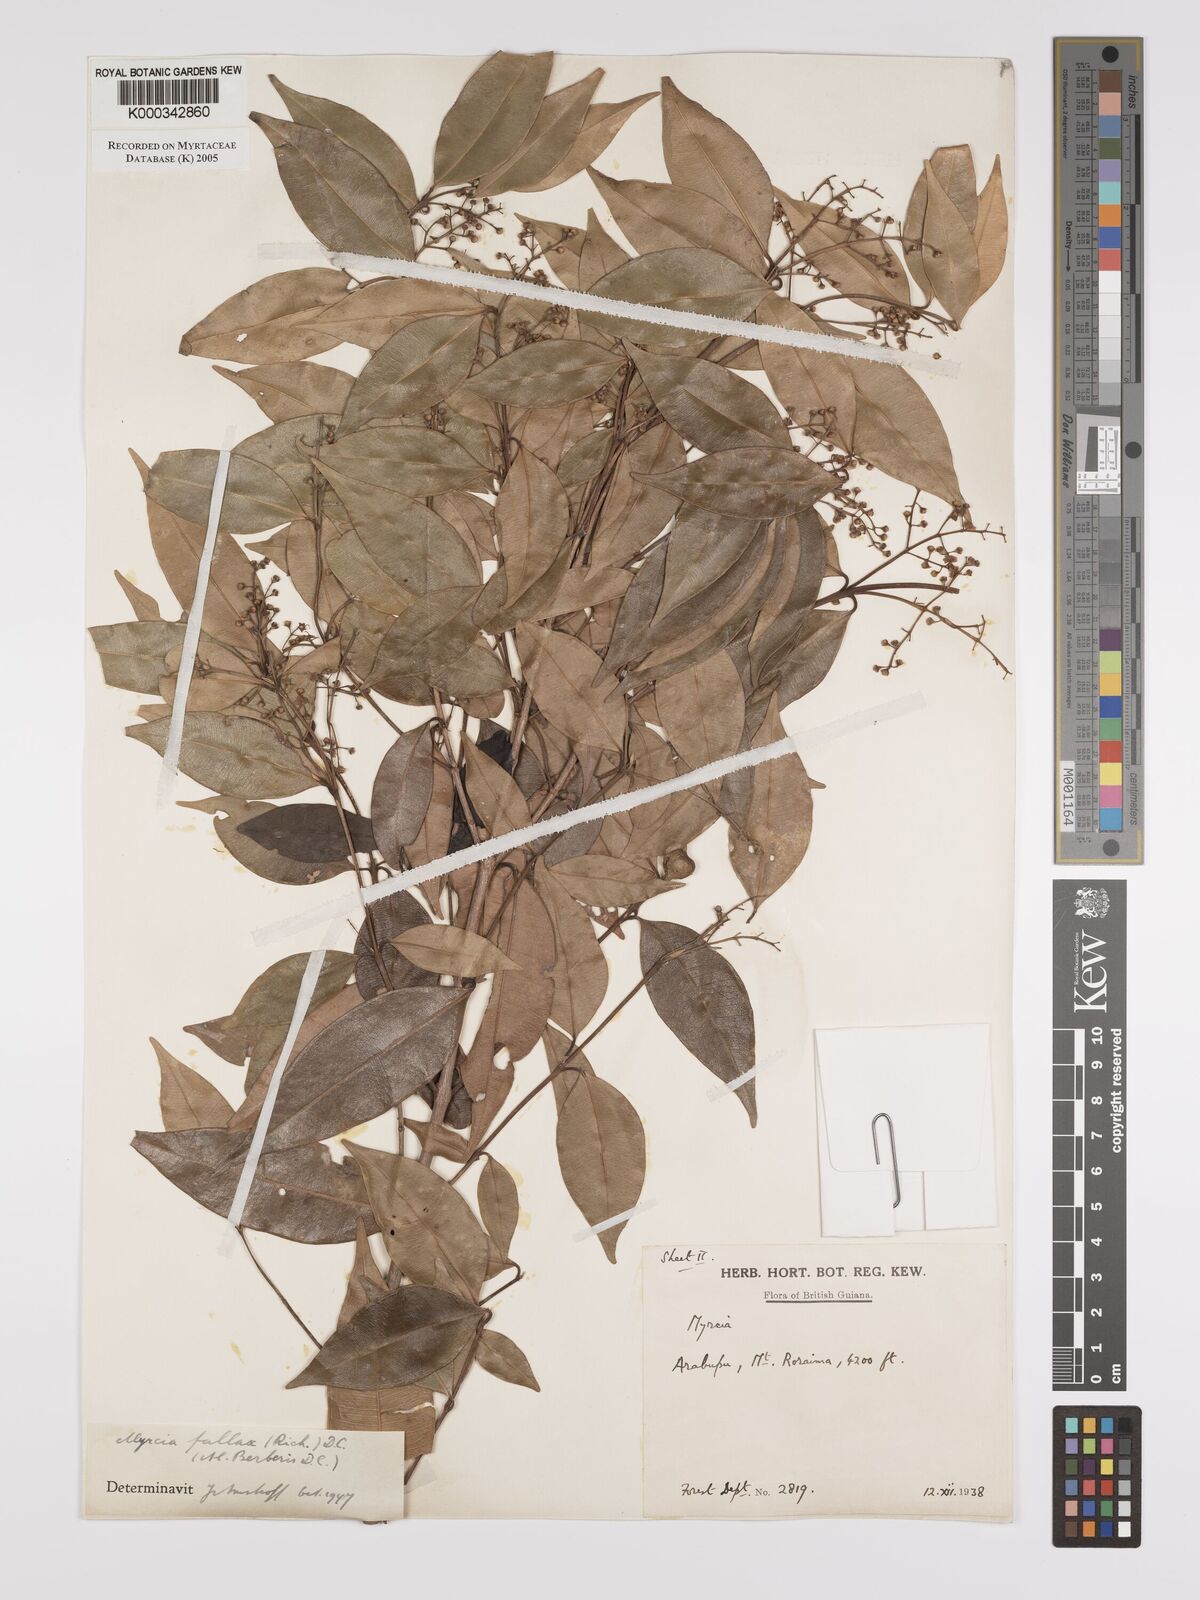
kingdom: Plantae
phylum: Tracheophyta
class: Magnoliopsida
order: Myrtales
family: Myrtaceae
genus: Myrcia
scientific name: Myrcia splendens
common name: Surinam cherry
